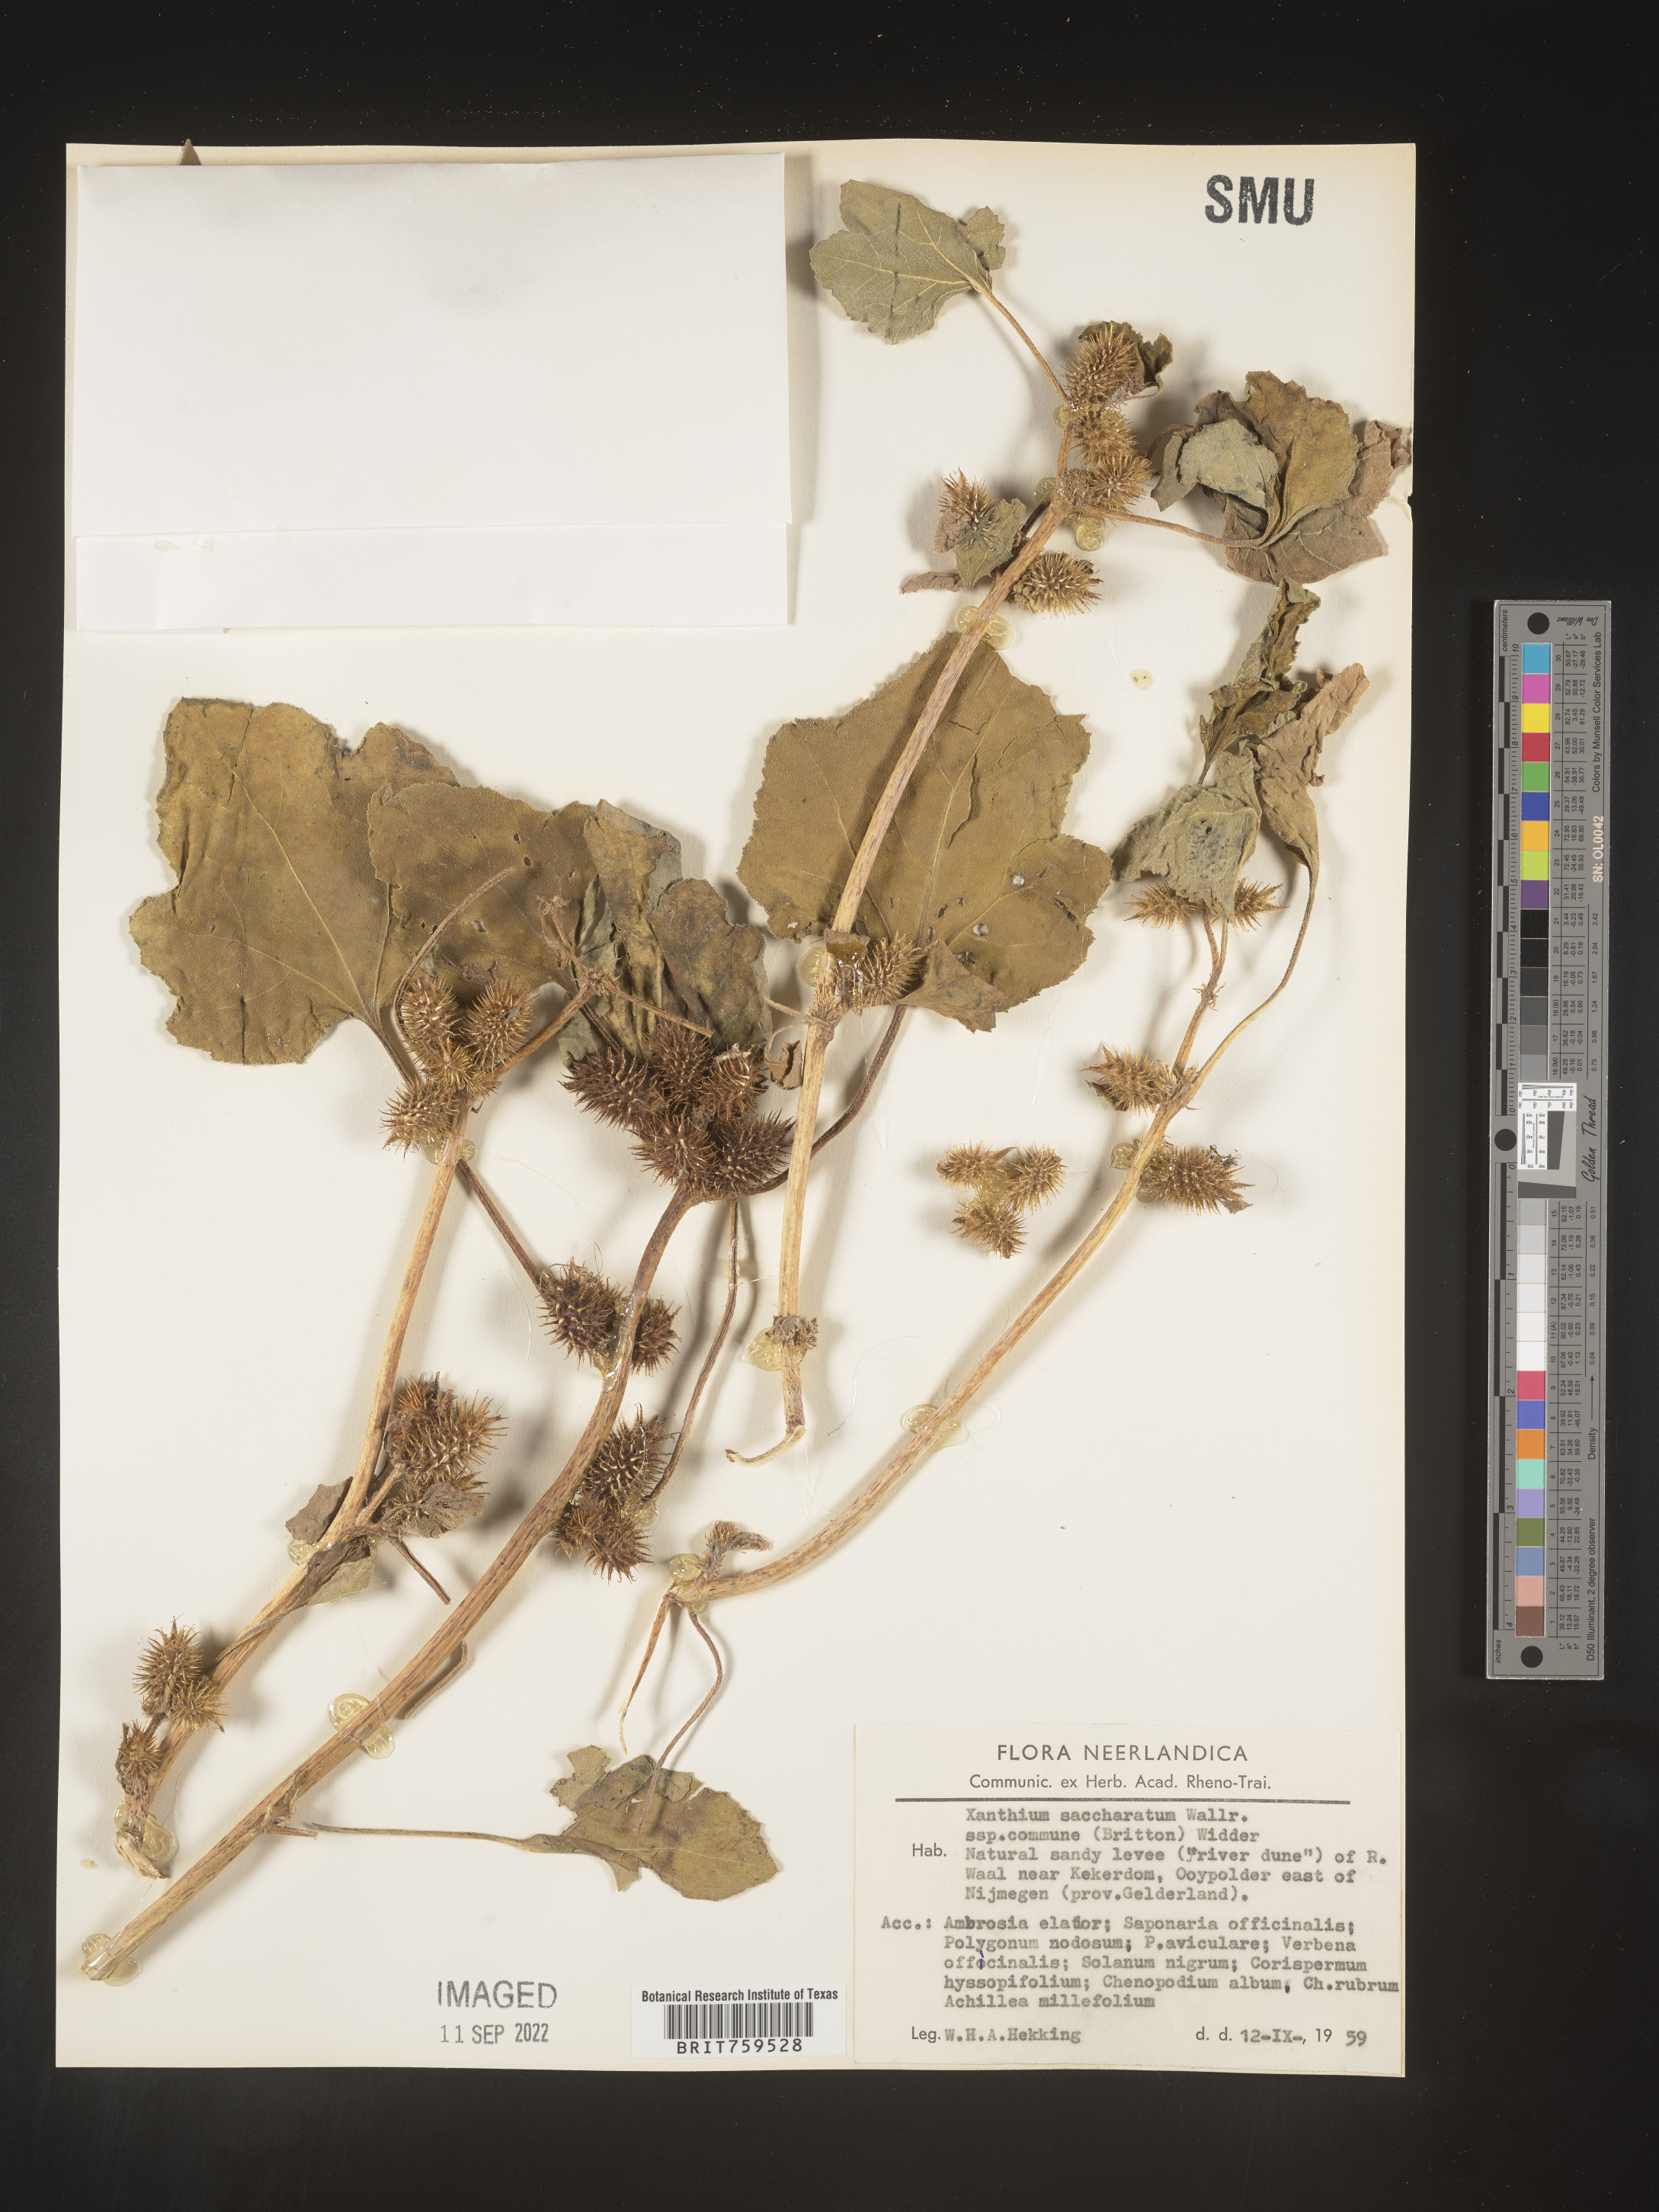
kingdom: Plantae
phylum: Tracheophyta
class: Magnoliopsida
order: Asterales
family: Asteraceae
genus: Xanthium
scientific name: Xanthium
